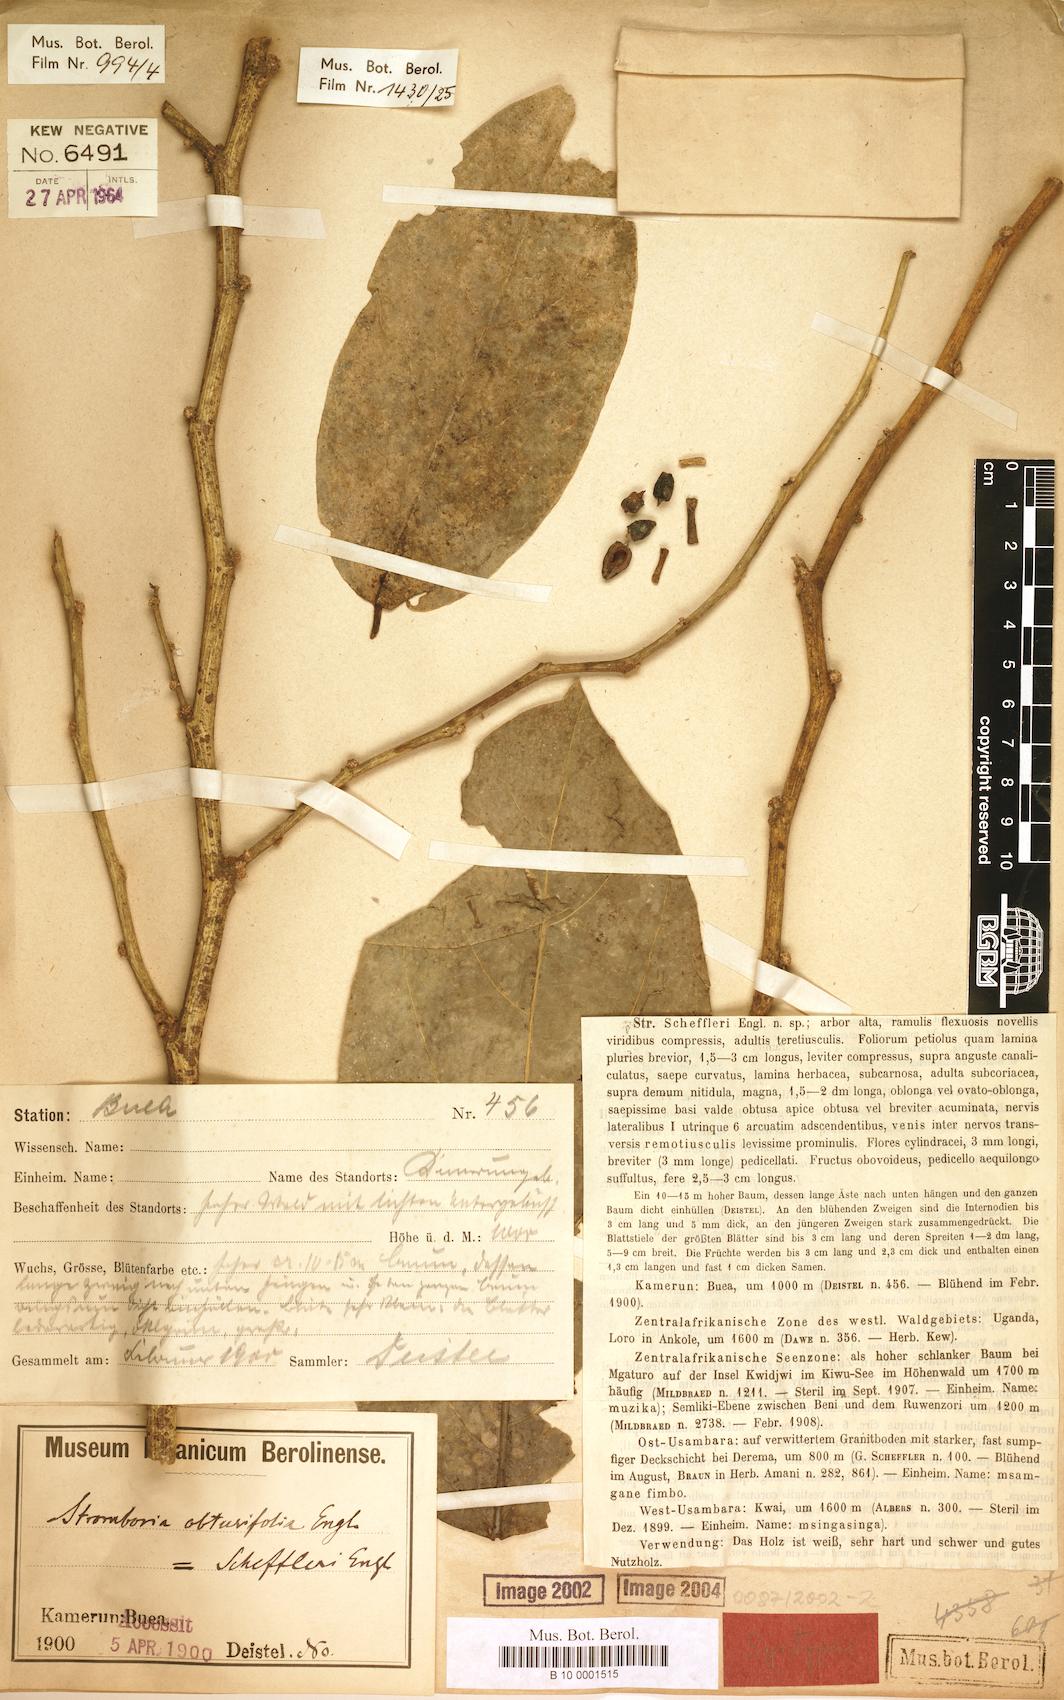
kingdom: Plantae
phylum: Tracheophyta
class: Magnoliopsida
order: Santalales
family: Strombosiaceae
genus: Strombosia
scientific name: Strombosia scheffleri
